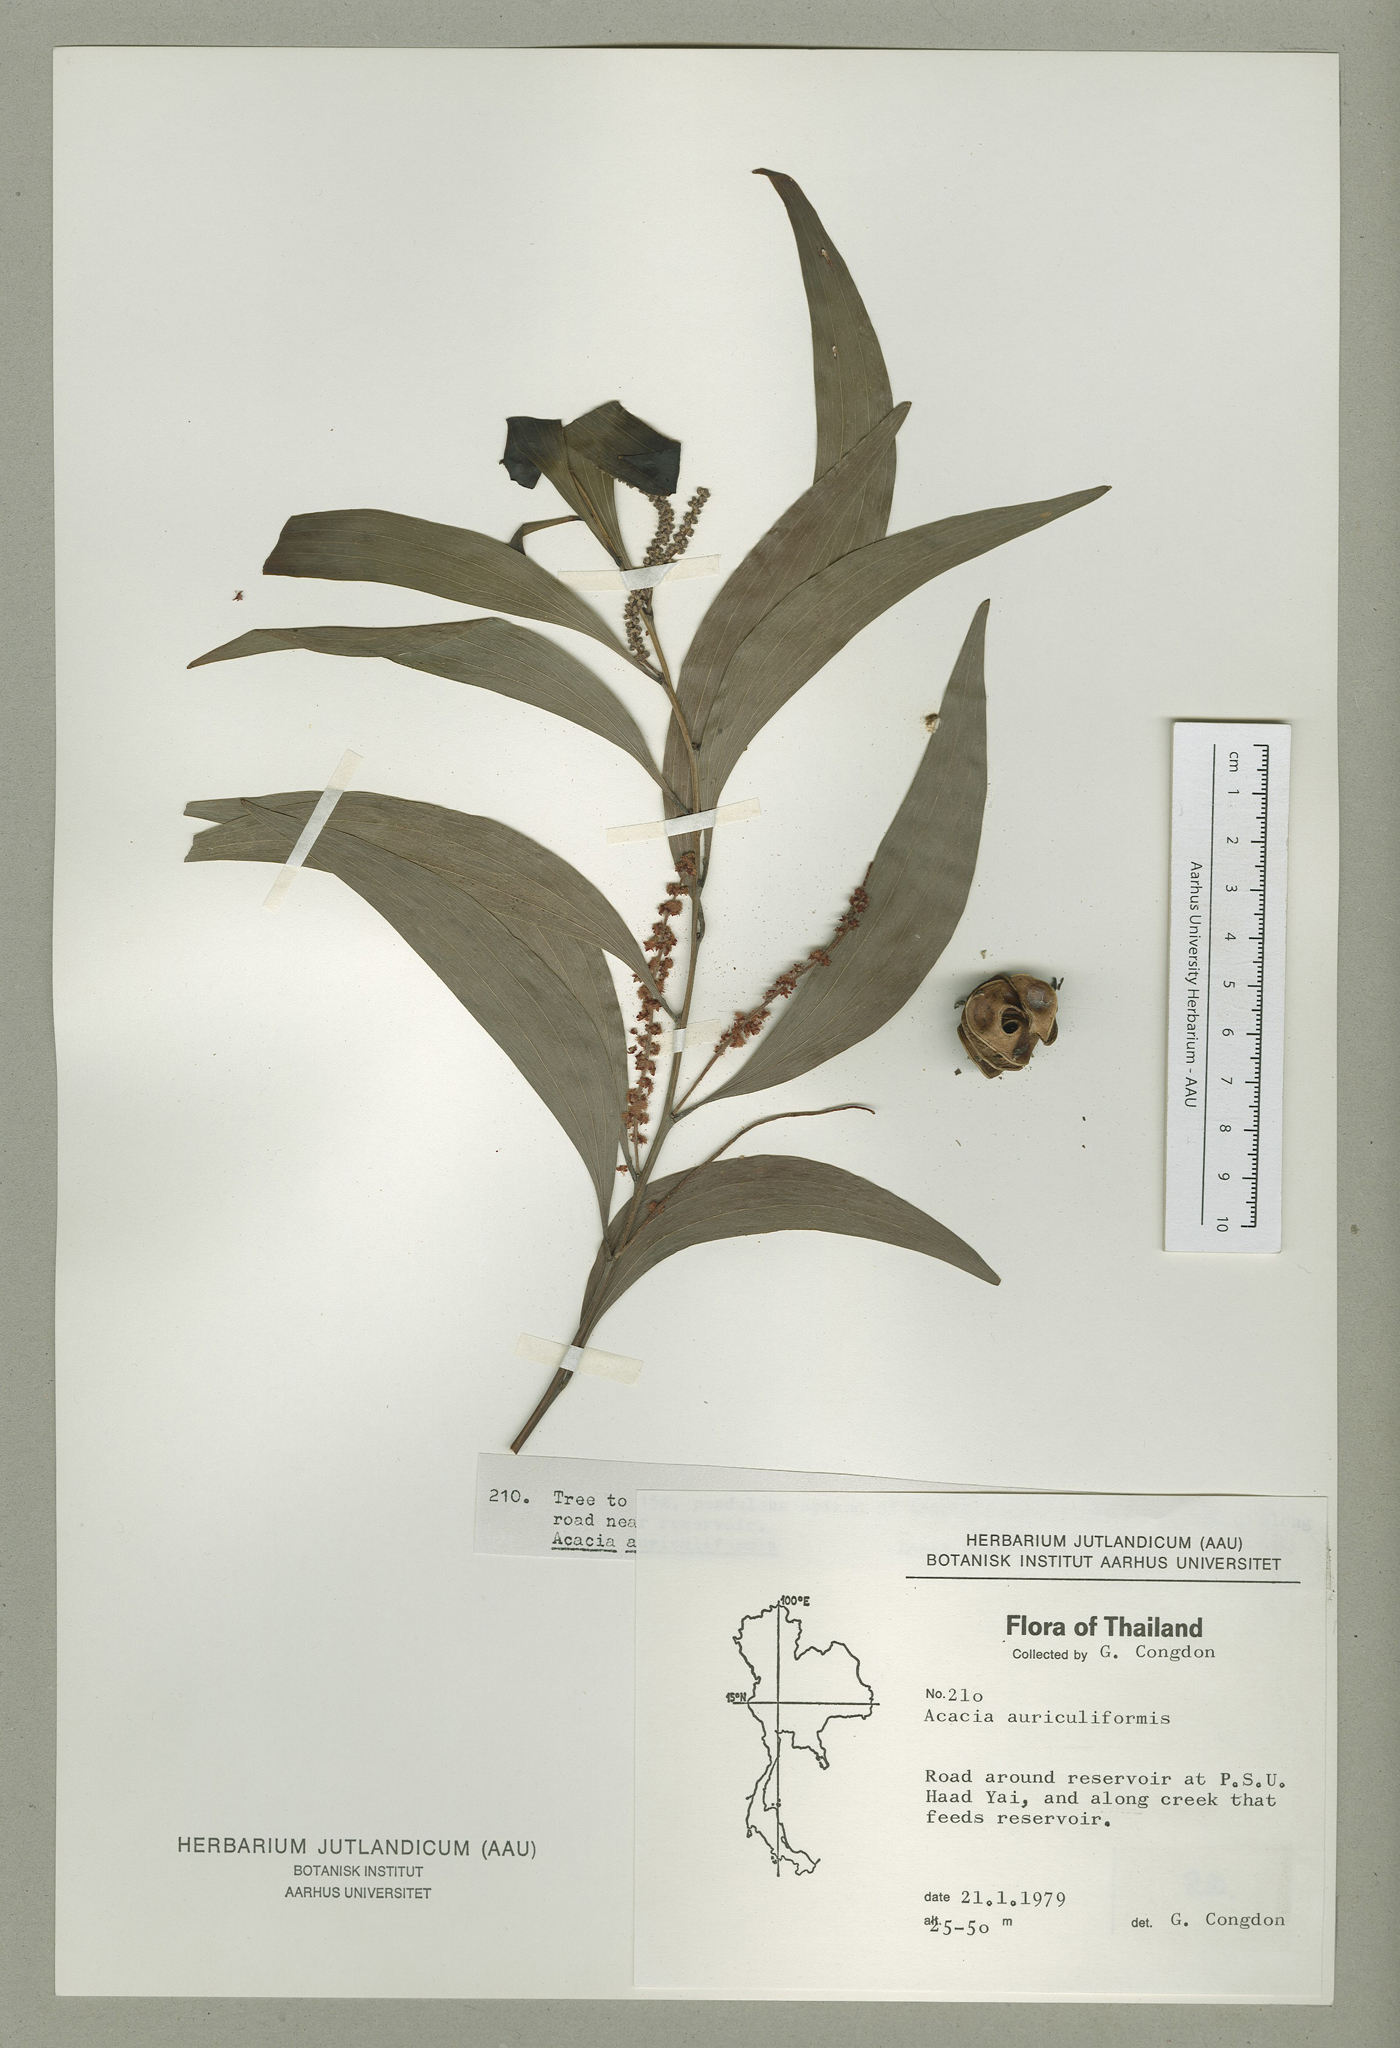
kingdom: Plantae
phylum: Tracheophyta
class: Magnoliopsida
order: Fabales
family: Fabaceae
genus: Acacia
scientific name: Acacia auriculiformis
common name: Earleaf acacia
